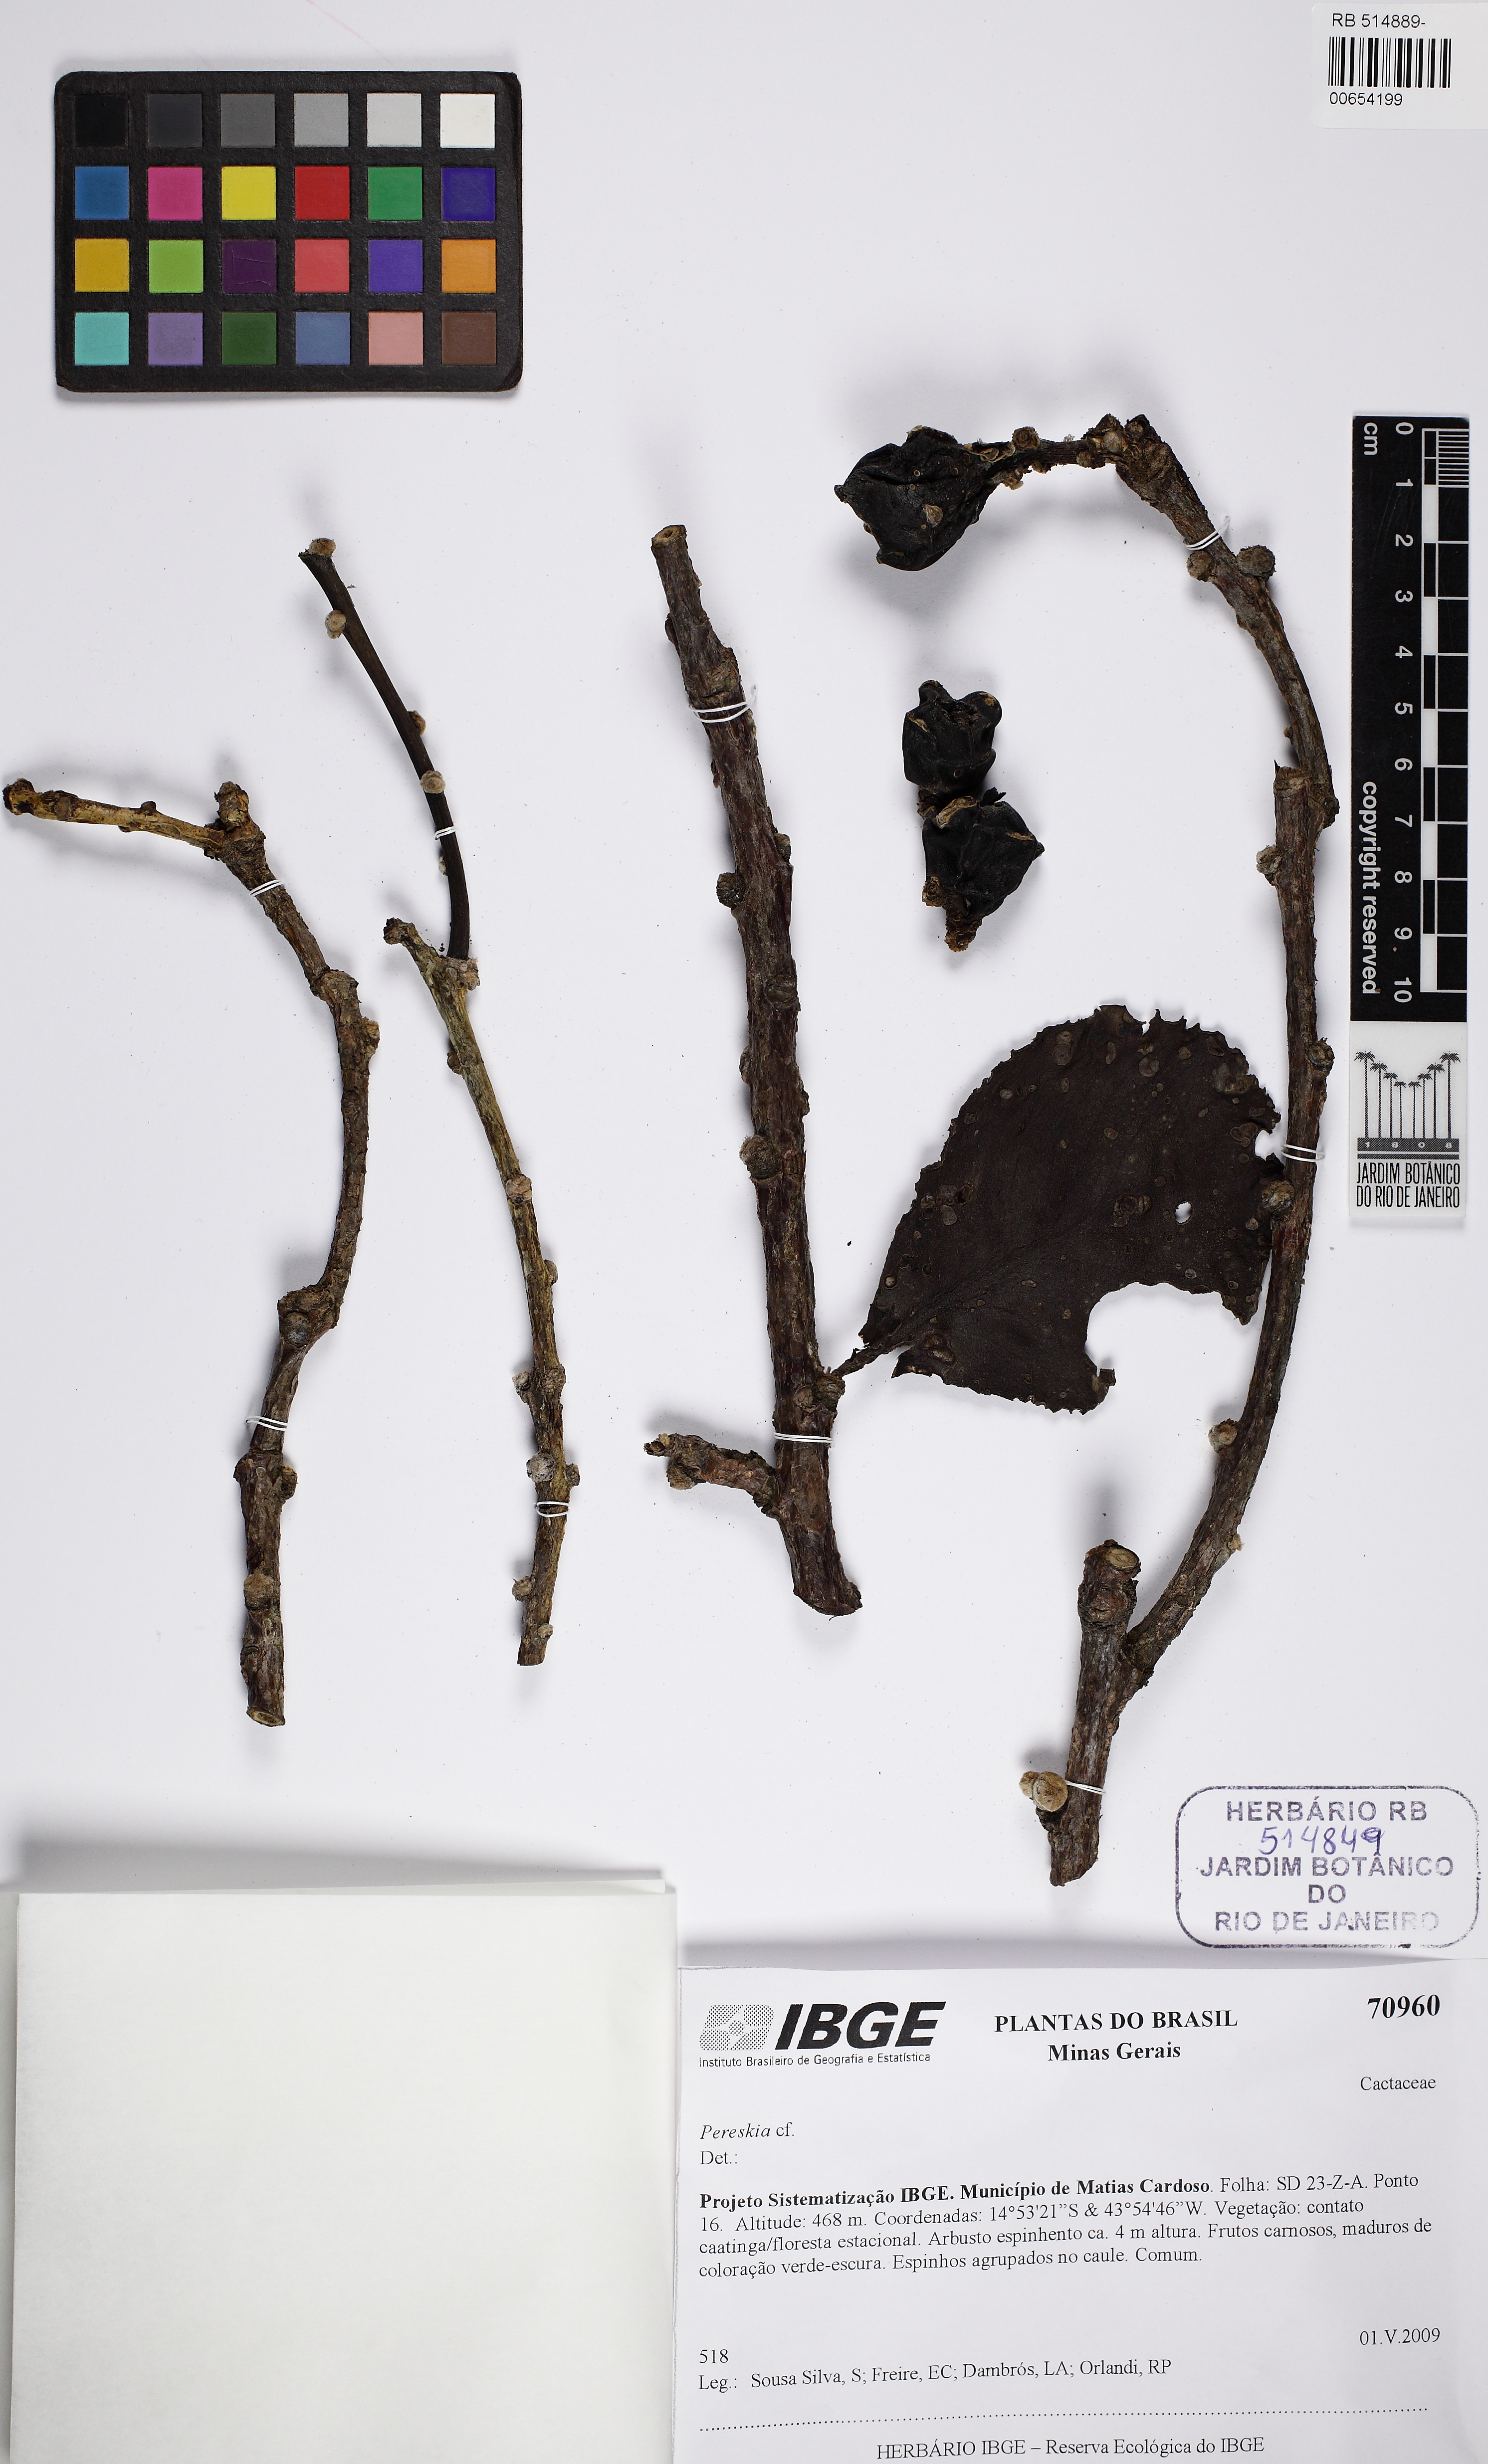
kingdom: Plantae
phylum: Tracheophyta
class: Magnoliopsida
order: Caryophyllales
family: Cactaceae
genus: Pereskia
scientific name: Pereskia stenantha
